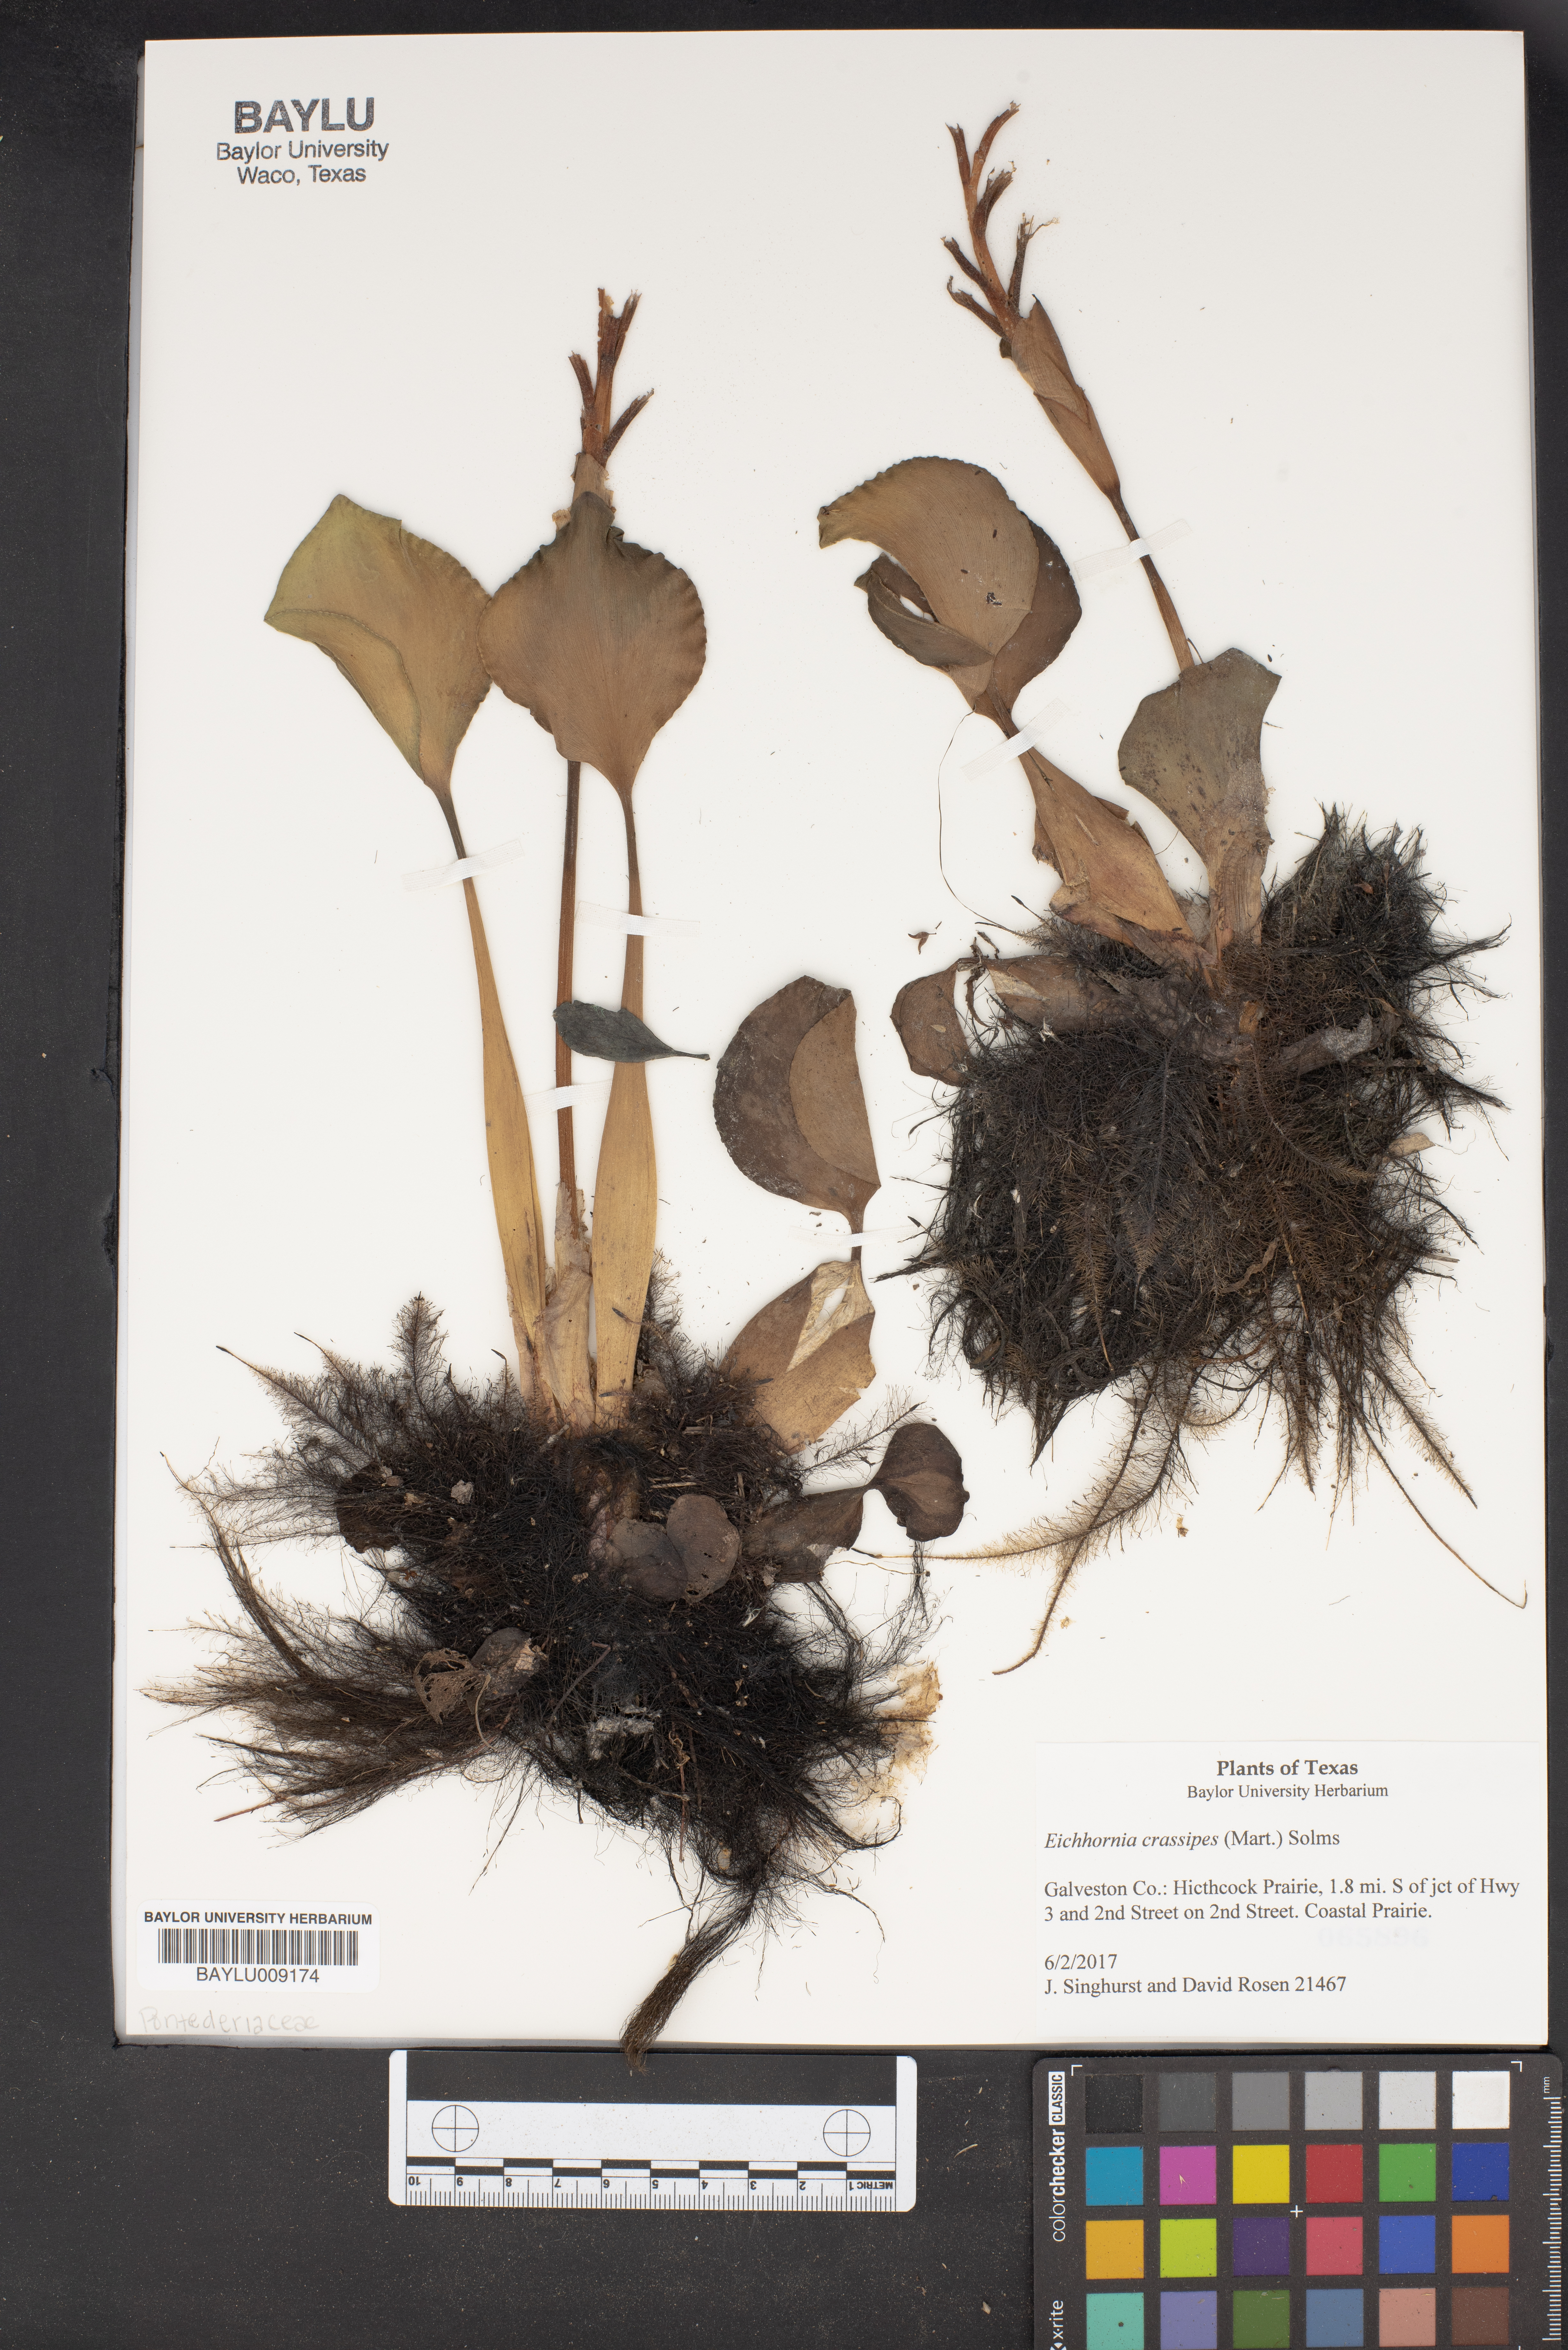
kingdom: Plantae
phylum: Tracheophyta
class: Liliopsida
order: Commelinales
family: Pontederiaceae
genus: Pontederia
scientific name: Pontederia crassipes
